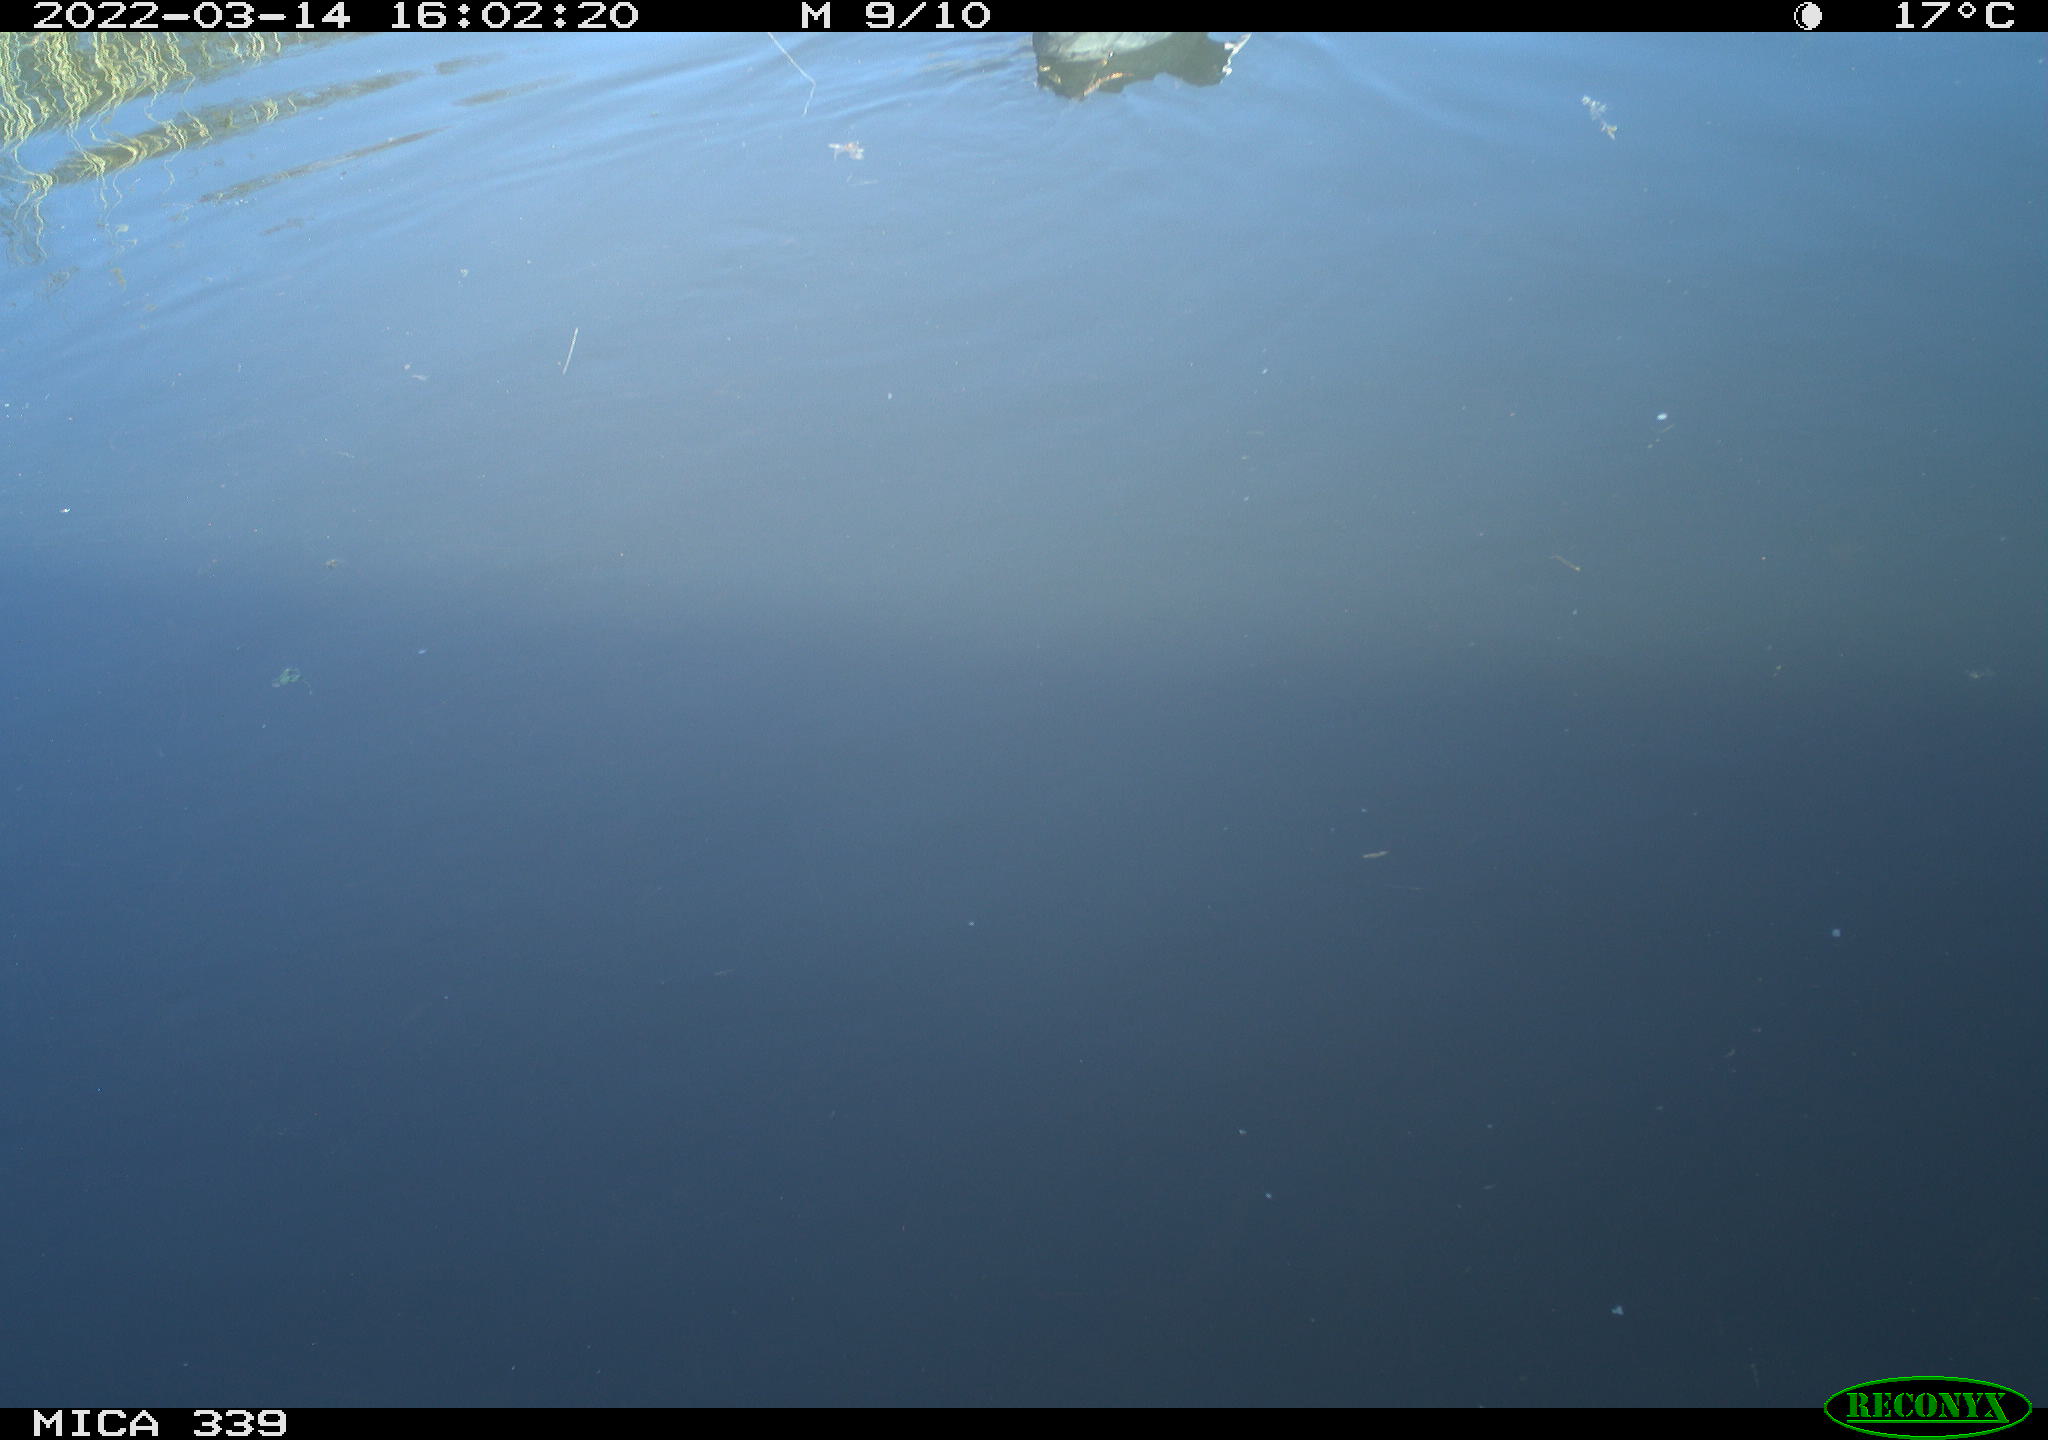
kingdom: Animalia
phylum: Chordata
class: Aves
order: Gruiformes
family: Rallidae
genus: Fulica
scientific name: Fulica atra
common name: Eurasian coot
